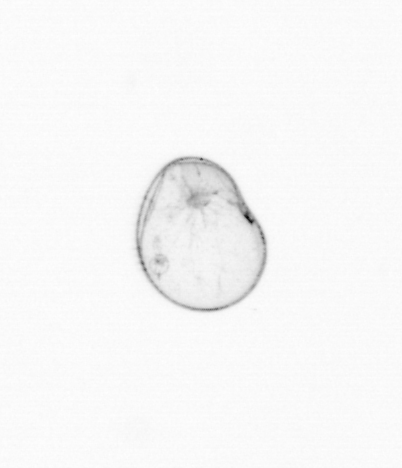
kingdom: Chromista
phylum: Myzozoa
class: Dinophyceae
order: Noctilucales
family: Noctilucaceae
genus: Noctiluca
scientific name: Noctiluca scintillans
